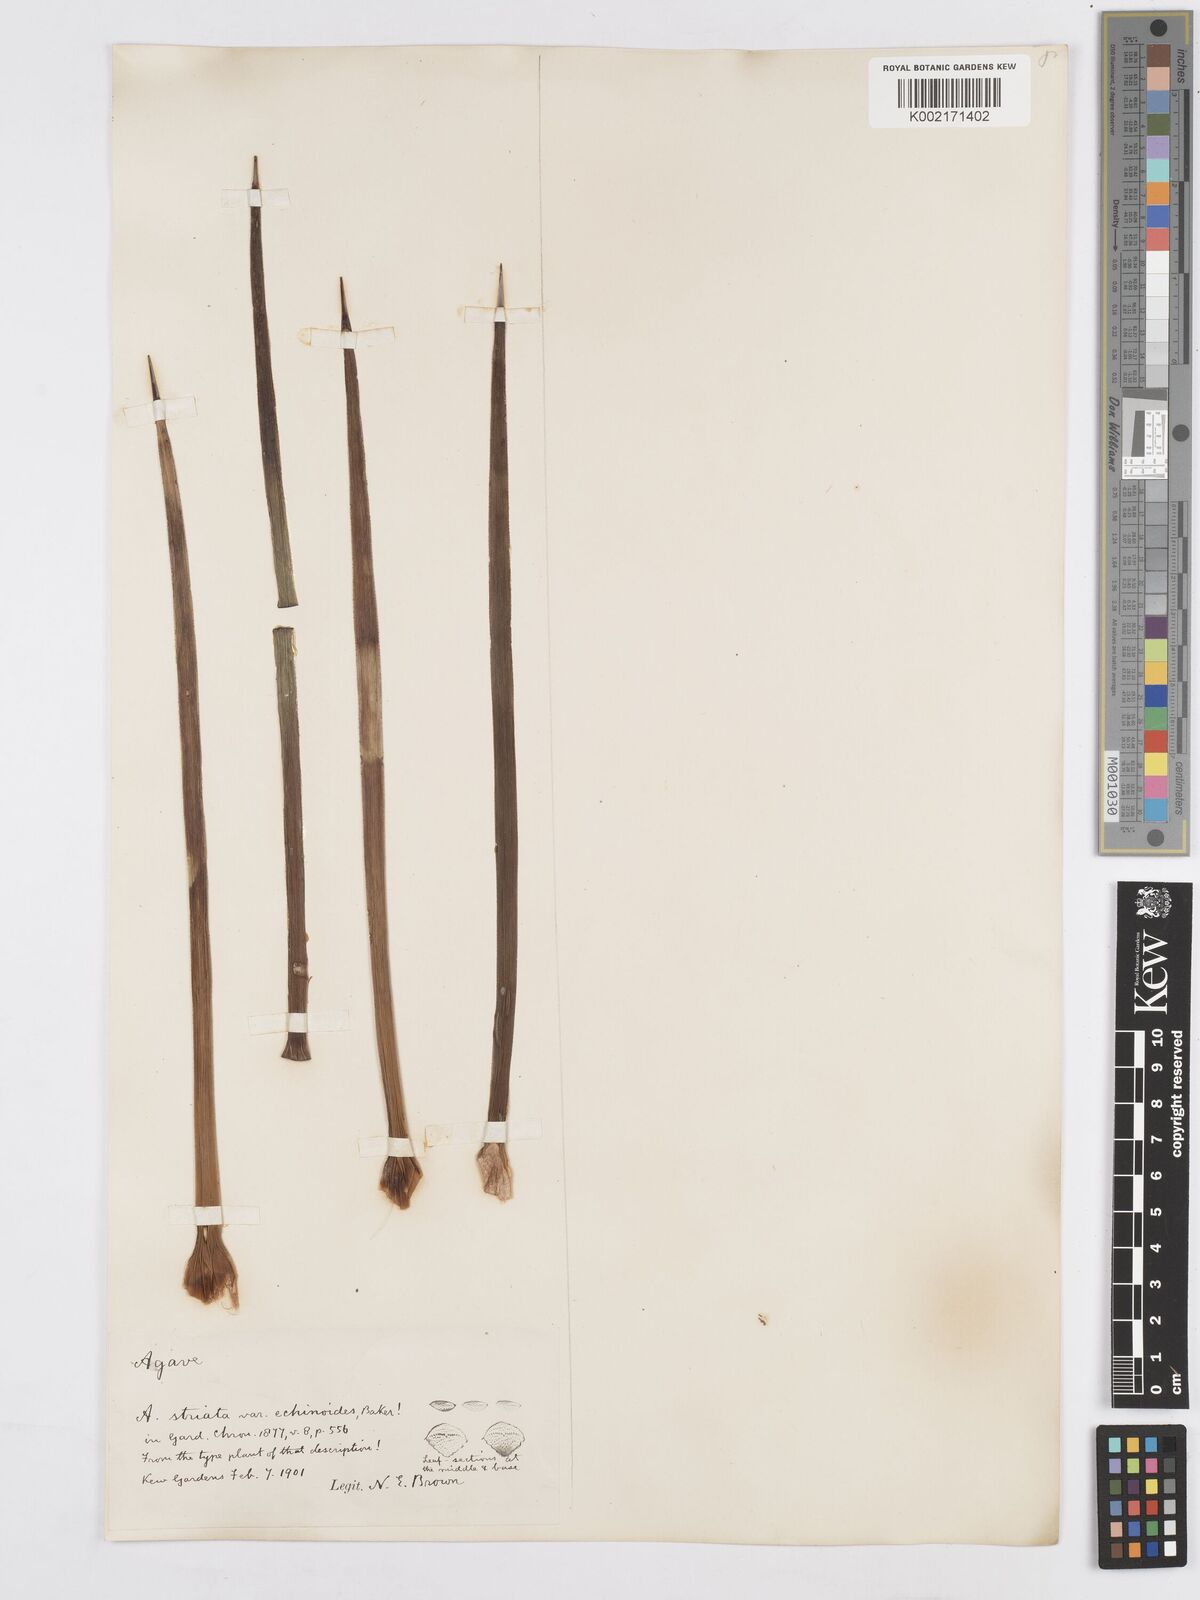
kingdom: Plantae
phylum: Tracheophyta
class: Liliopsida
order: Asparagales
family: Asparagaceae
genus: Agave
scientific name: Agave striata
